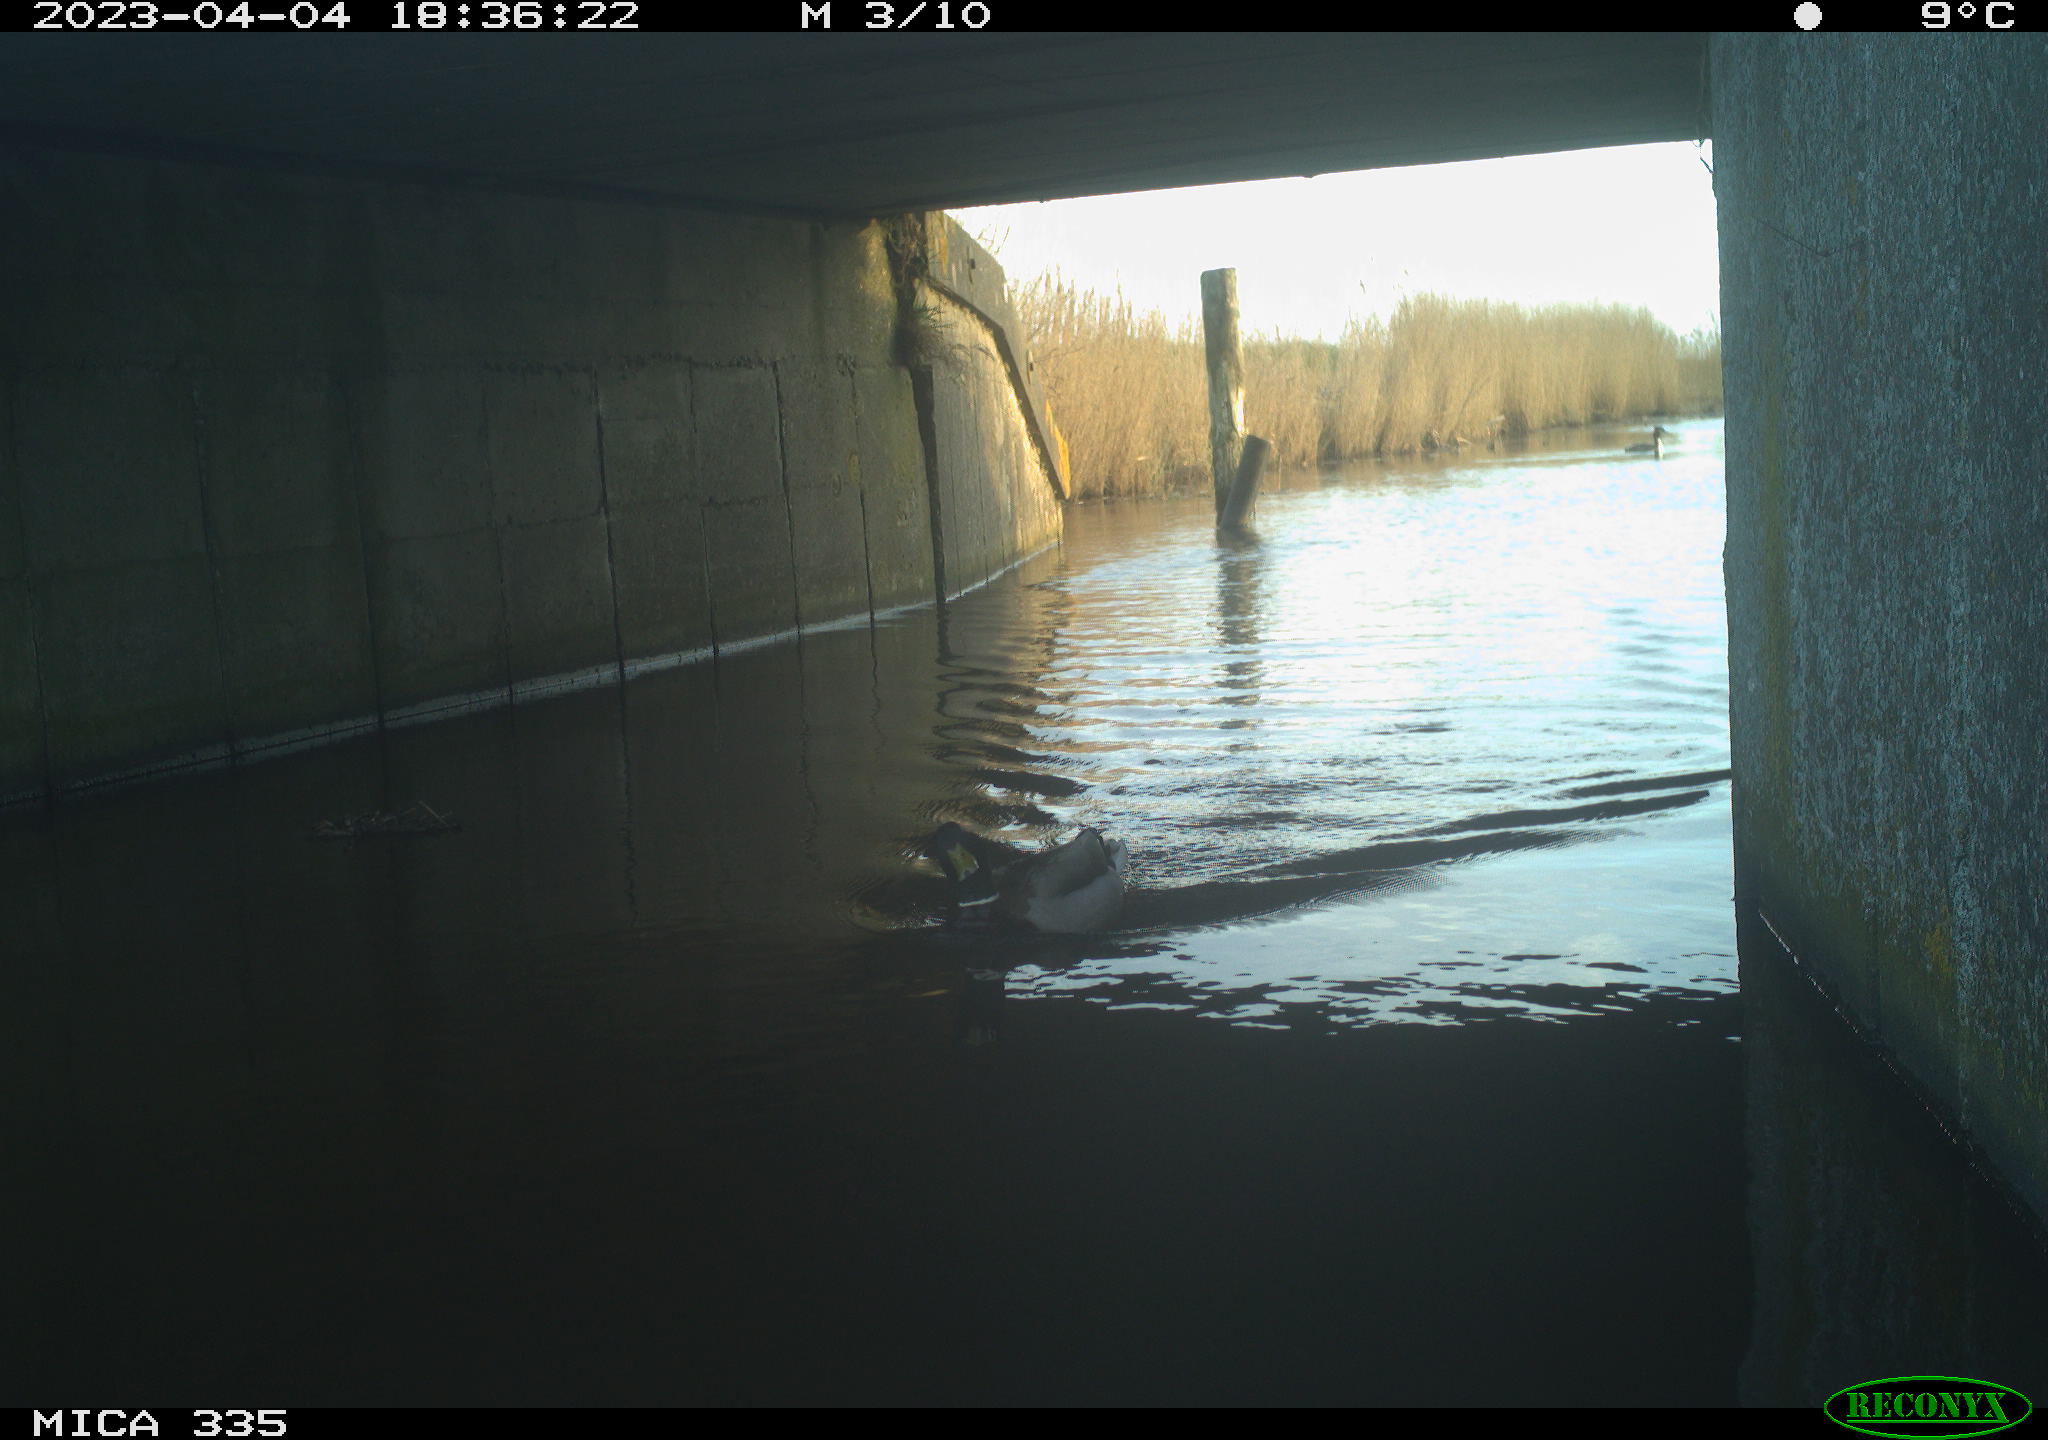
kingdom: Animalia
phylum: Chordata
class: Aves
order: Anseriformes
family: Anatidae
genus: Anas
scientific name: Anas
